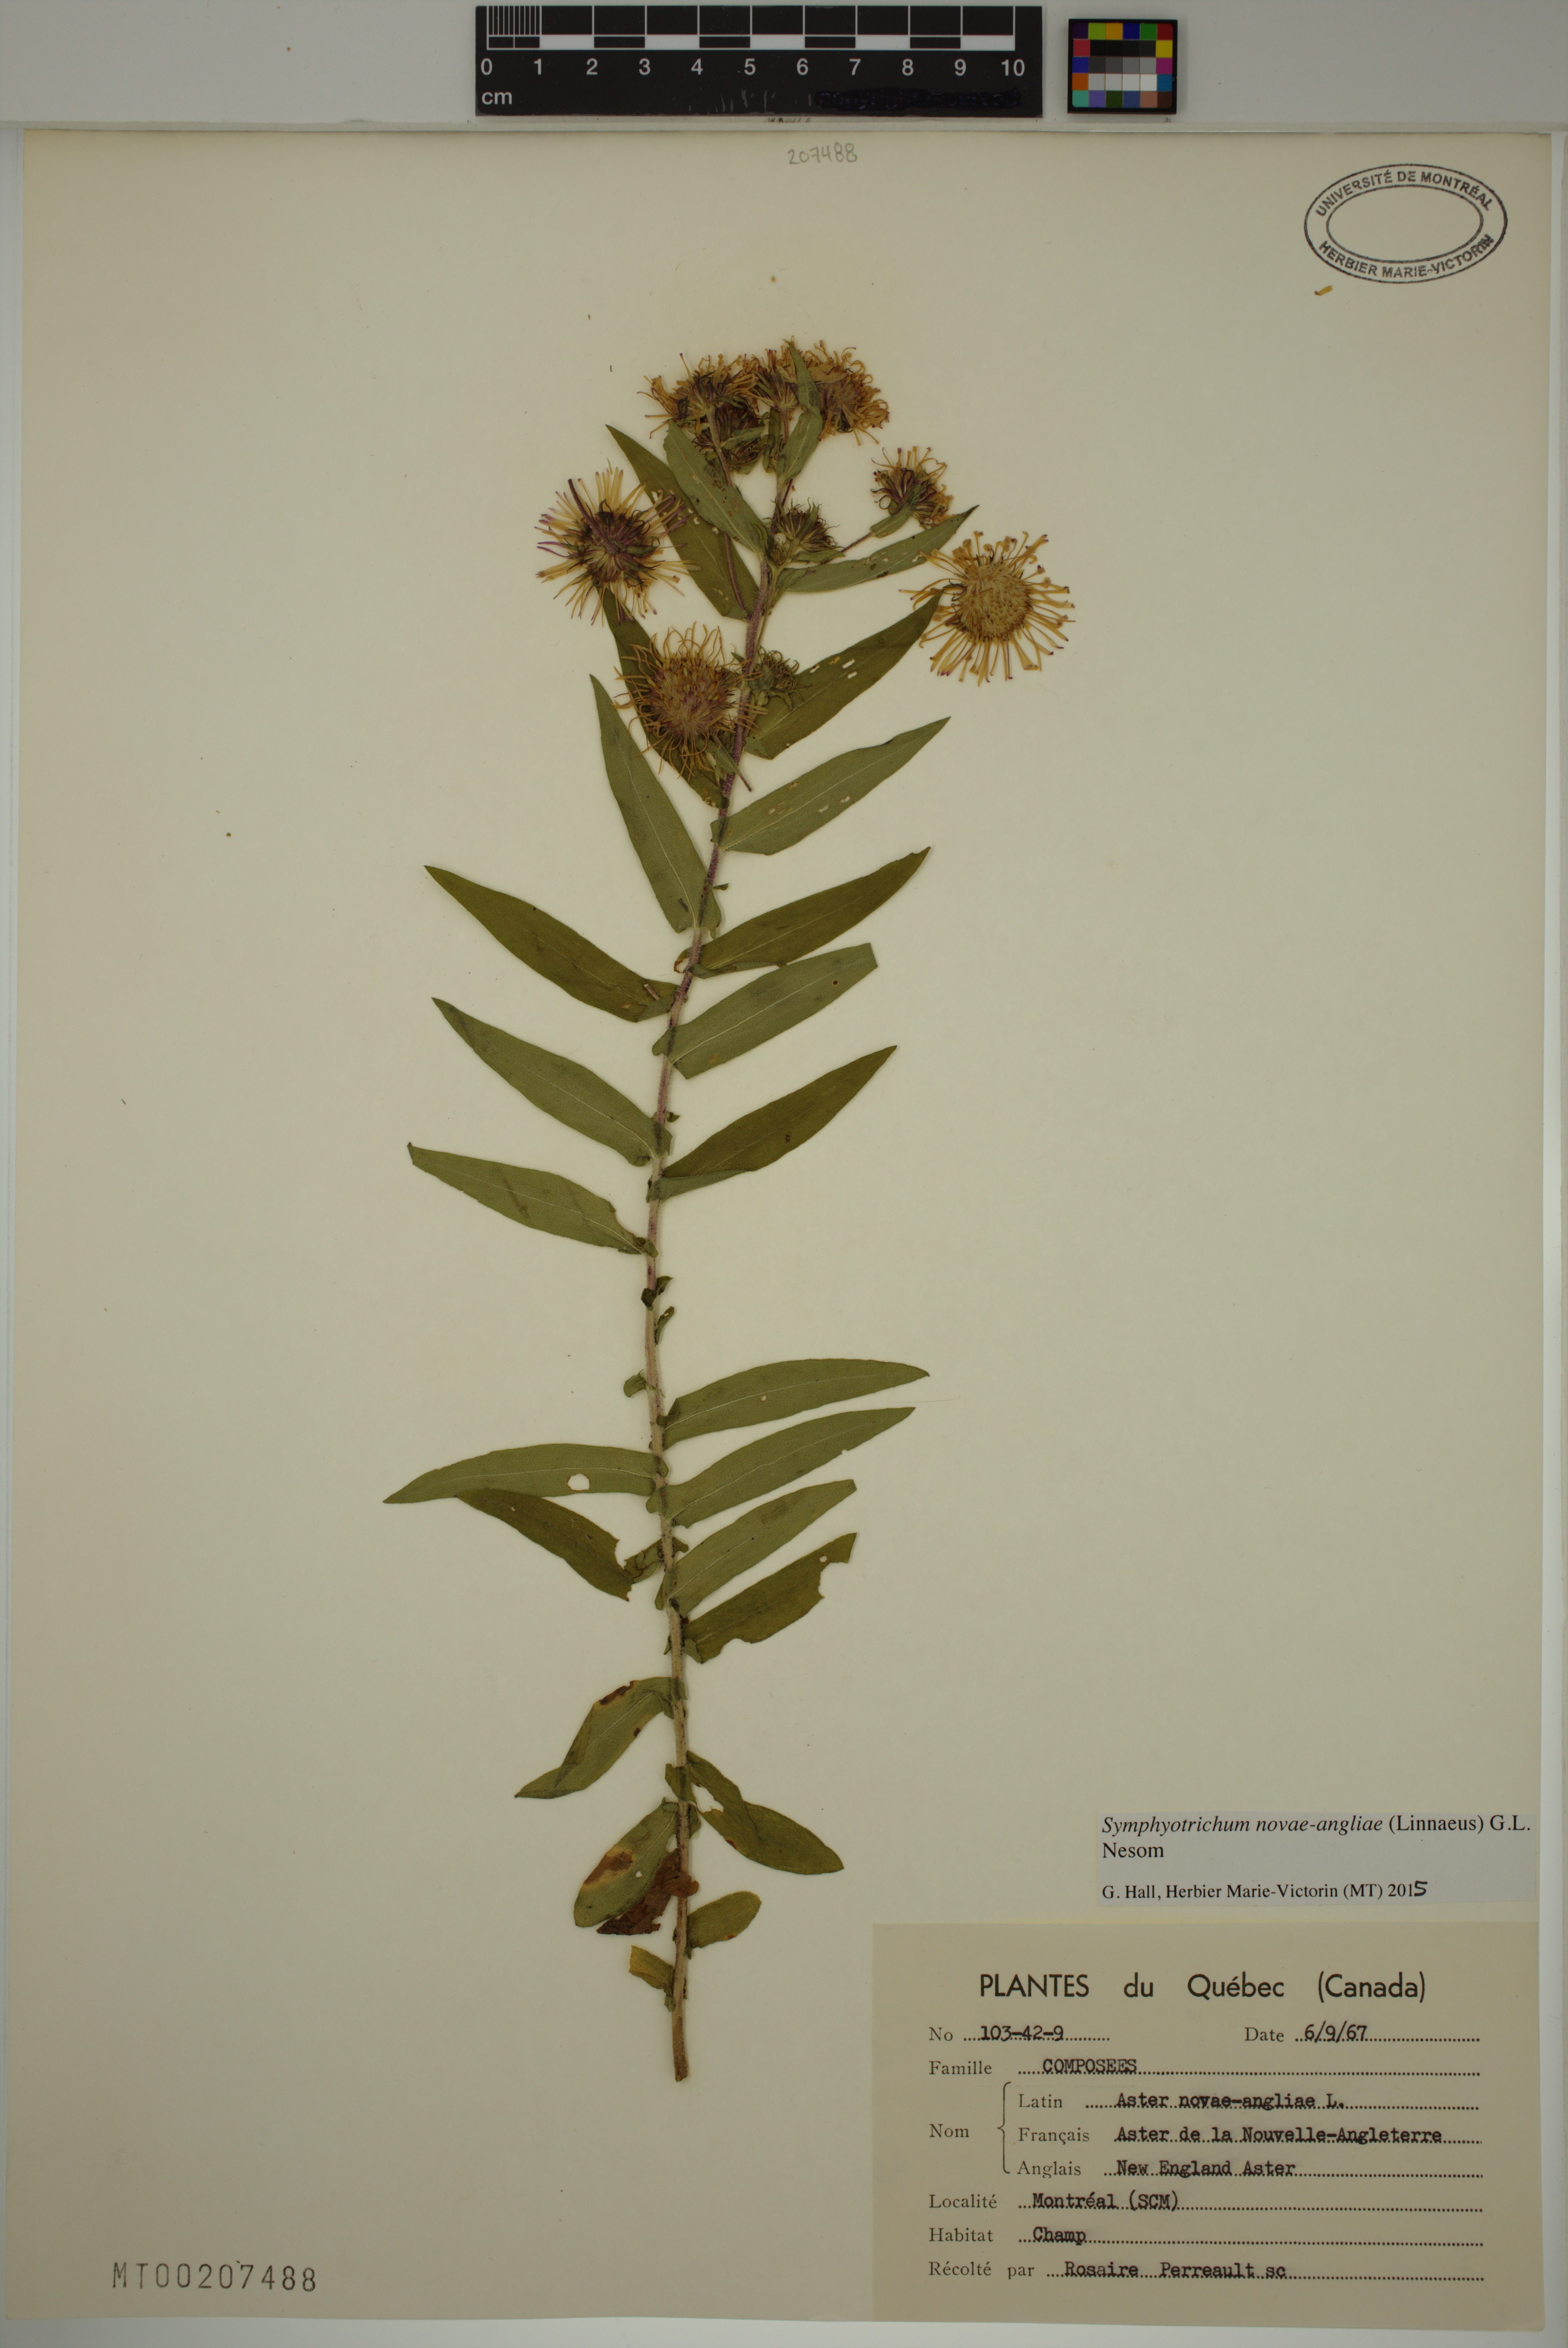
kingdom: Plantae
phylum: Tracheophyta
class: Magnoliopsida
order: Asterales
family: Asteraceae
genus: Symphyotrichum
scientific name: Symphyotrichum novae-angliae
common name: Michaelmas daisy
